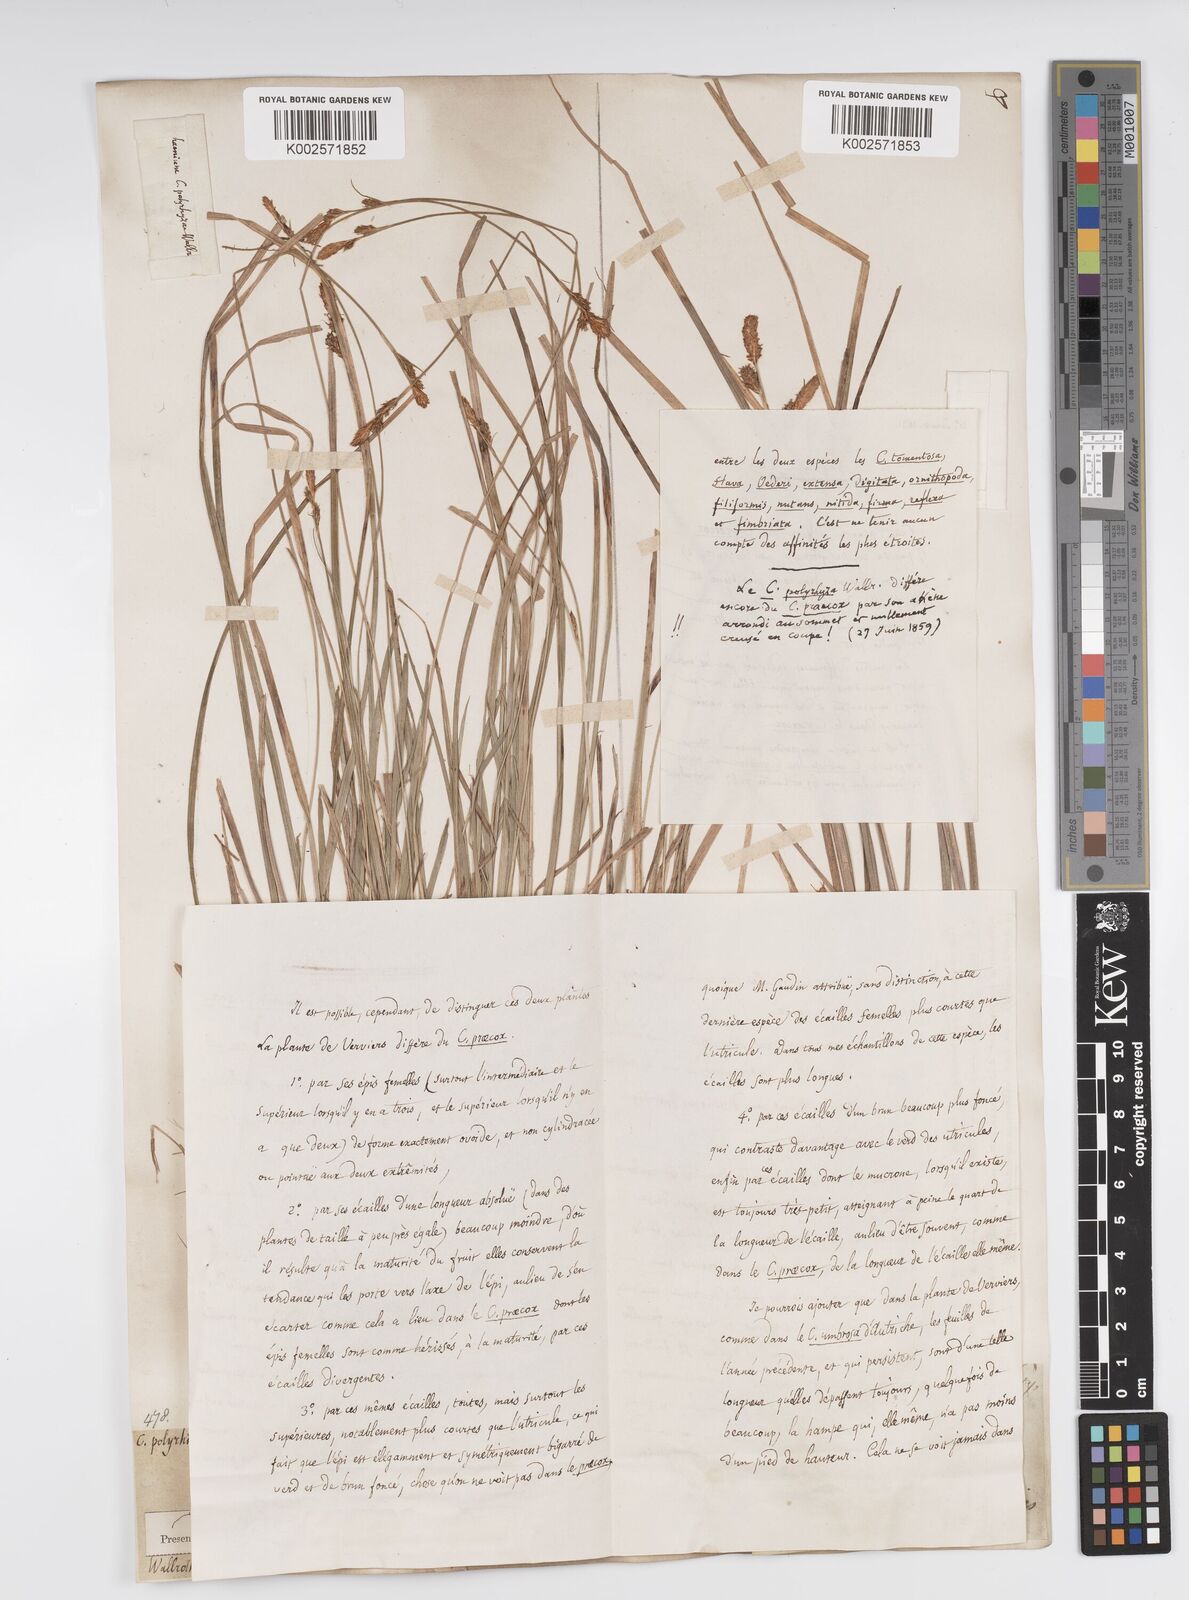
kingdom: Plantae
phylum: Tracheophyta
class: Liliopsida
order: Poales
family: Cyperaceae
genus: Carex
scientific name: Carex umbrosa
